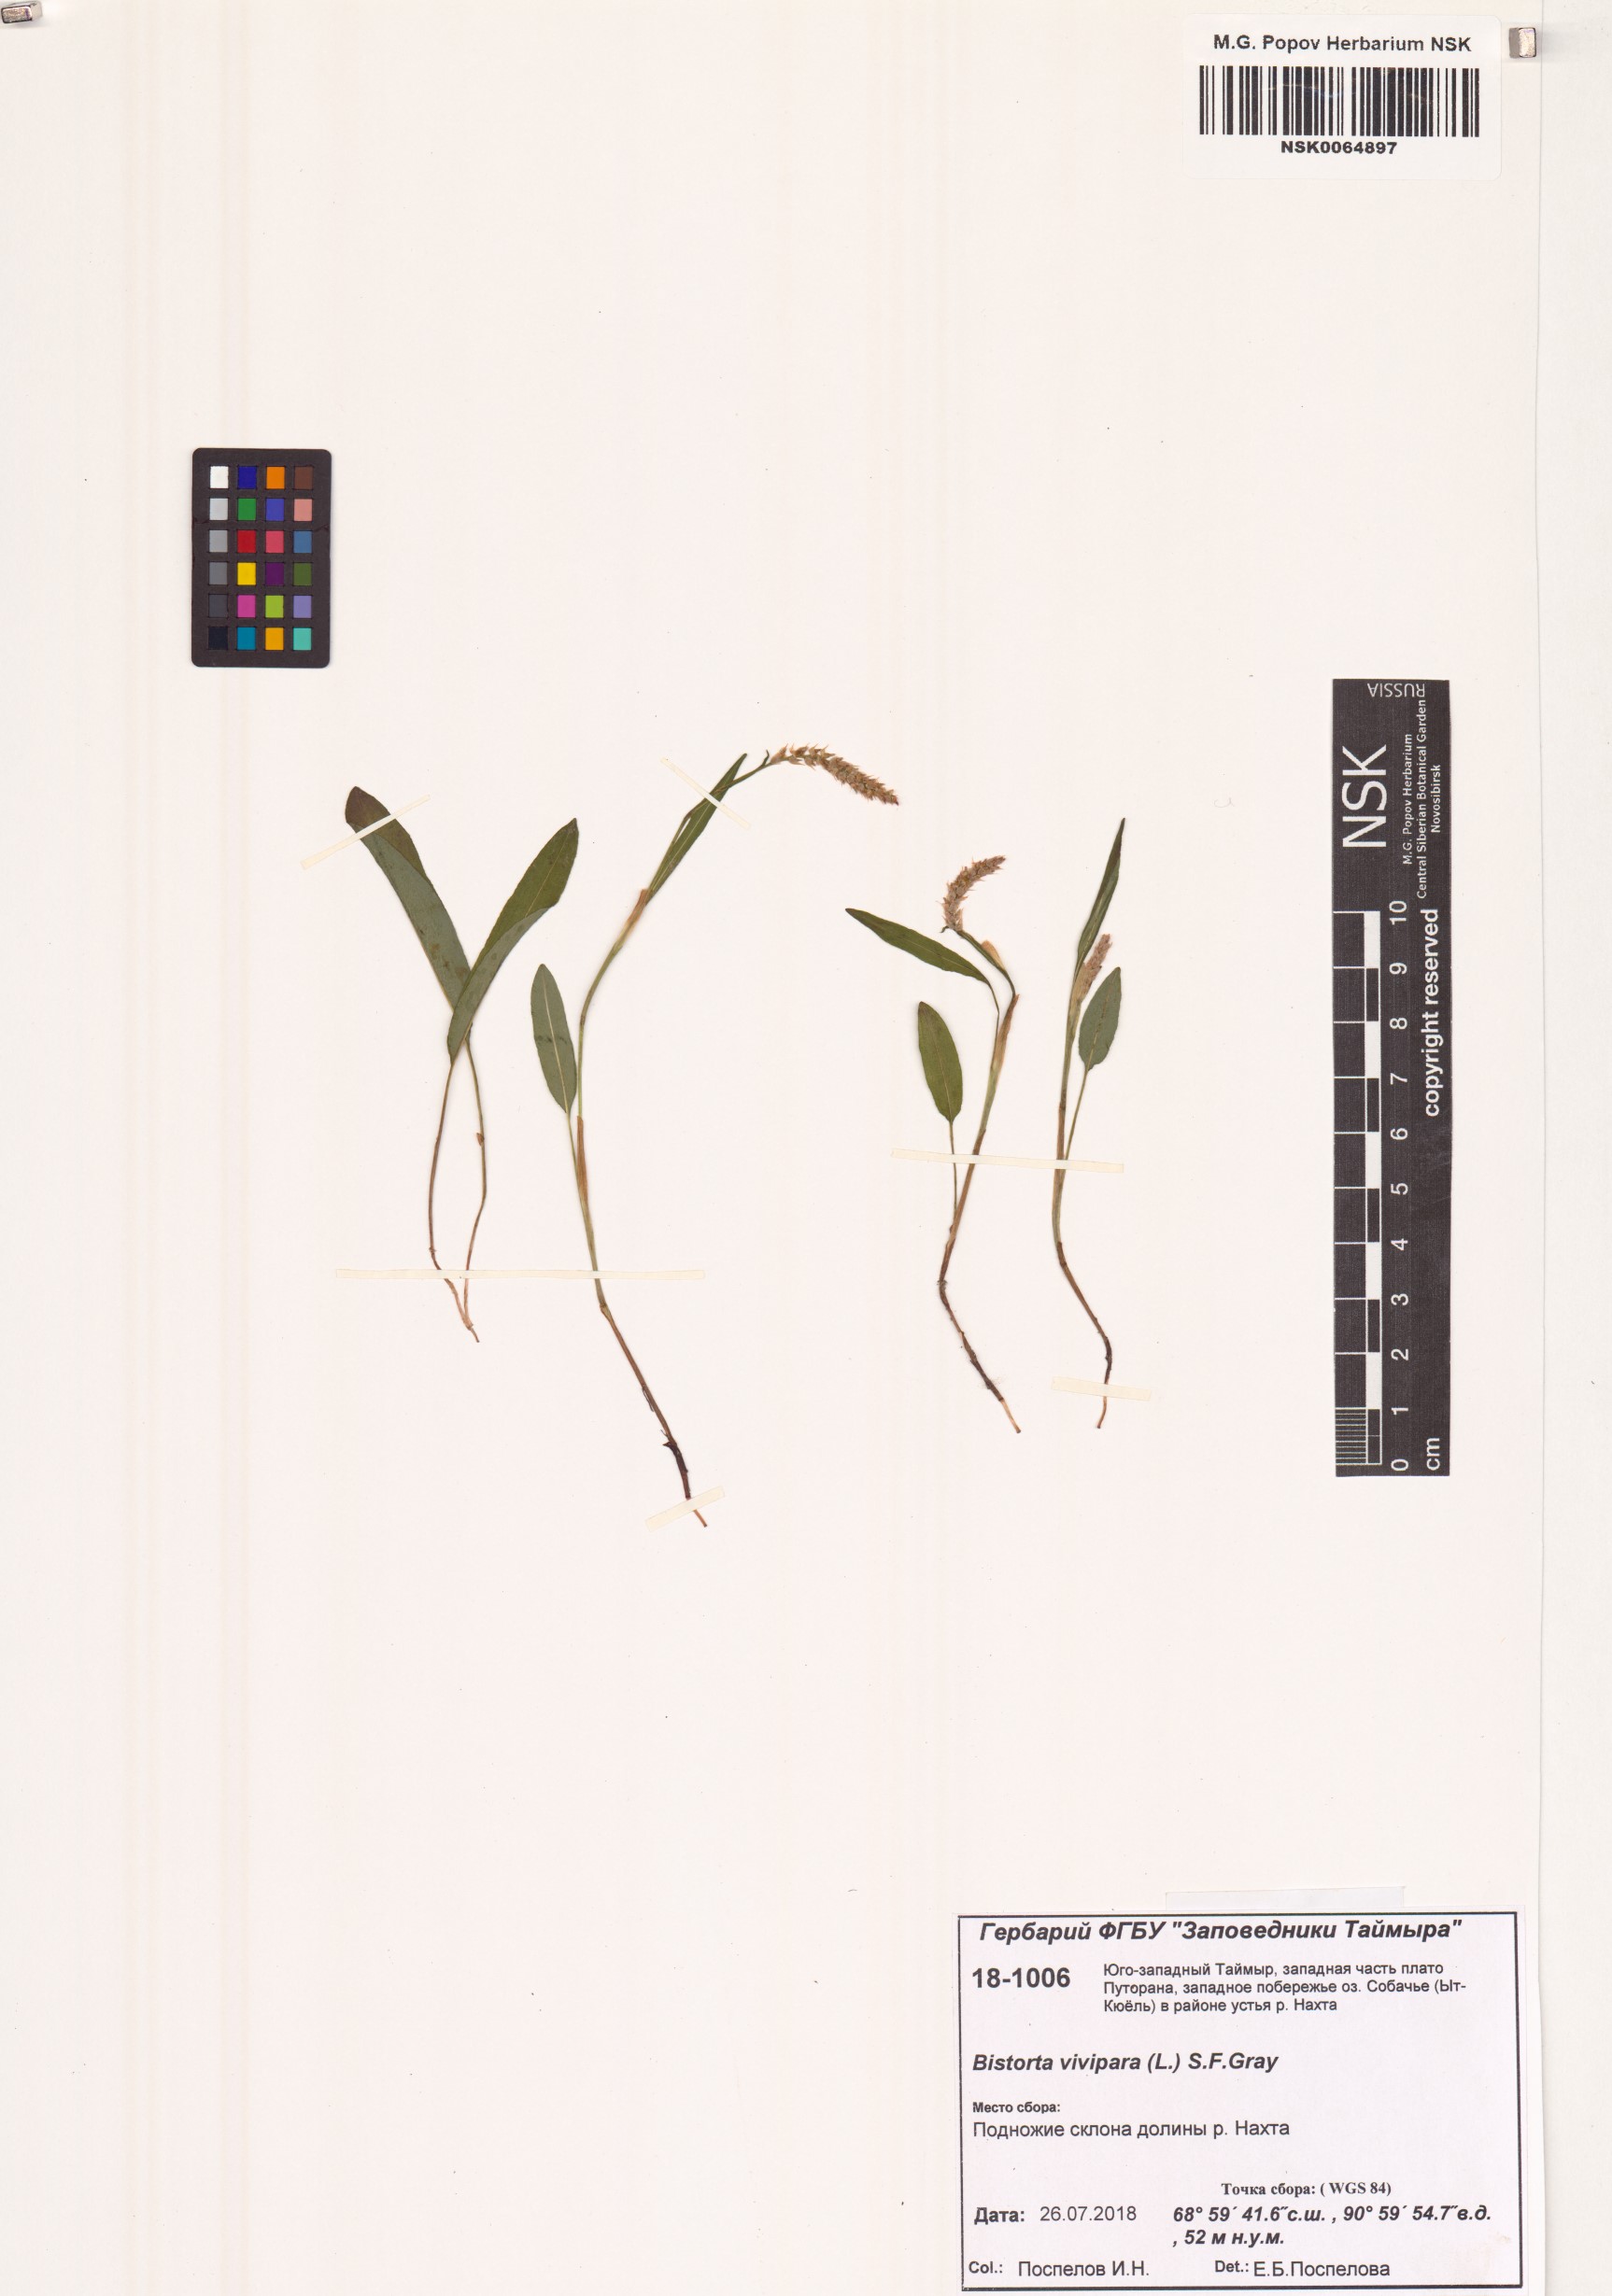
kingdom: Plantae
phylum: Tracheophyta
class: Magnoliopsida
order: Caryophyllales
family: Polygonaceae
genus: Bistorta
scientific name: Bistorta vivipara
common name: Alpine bistort
